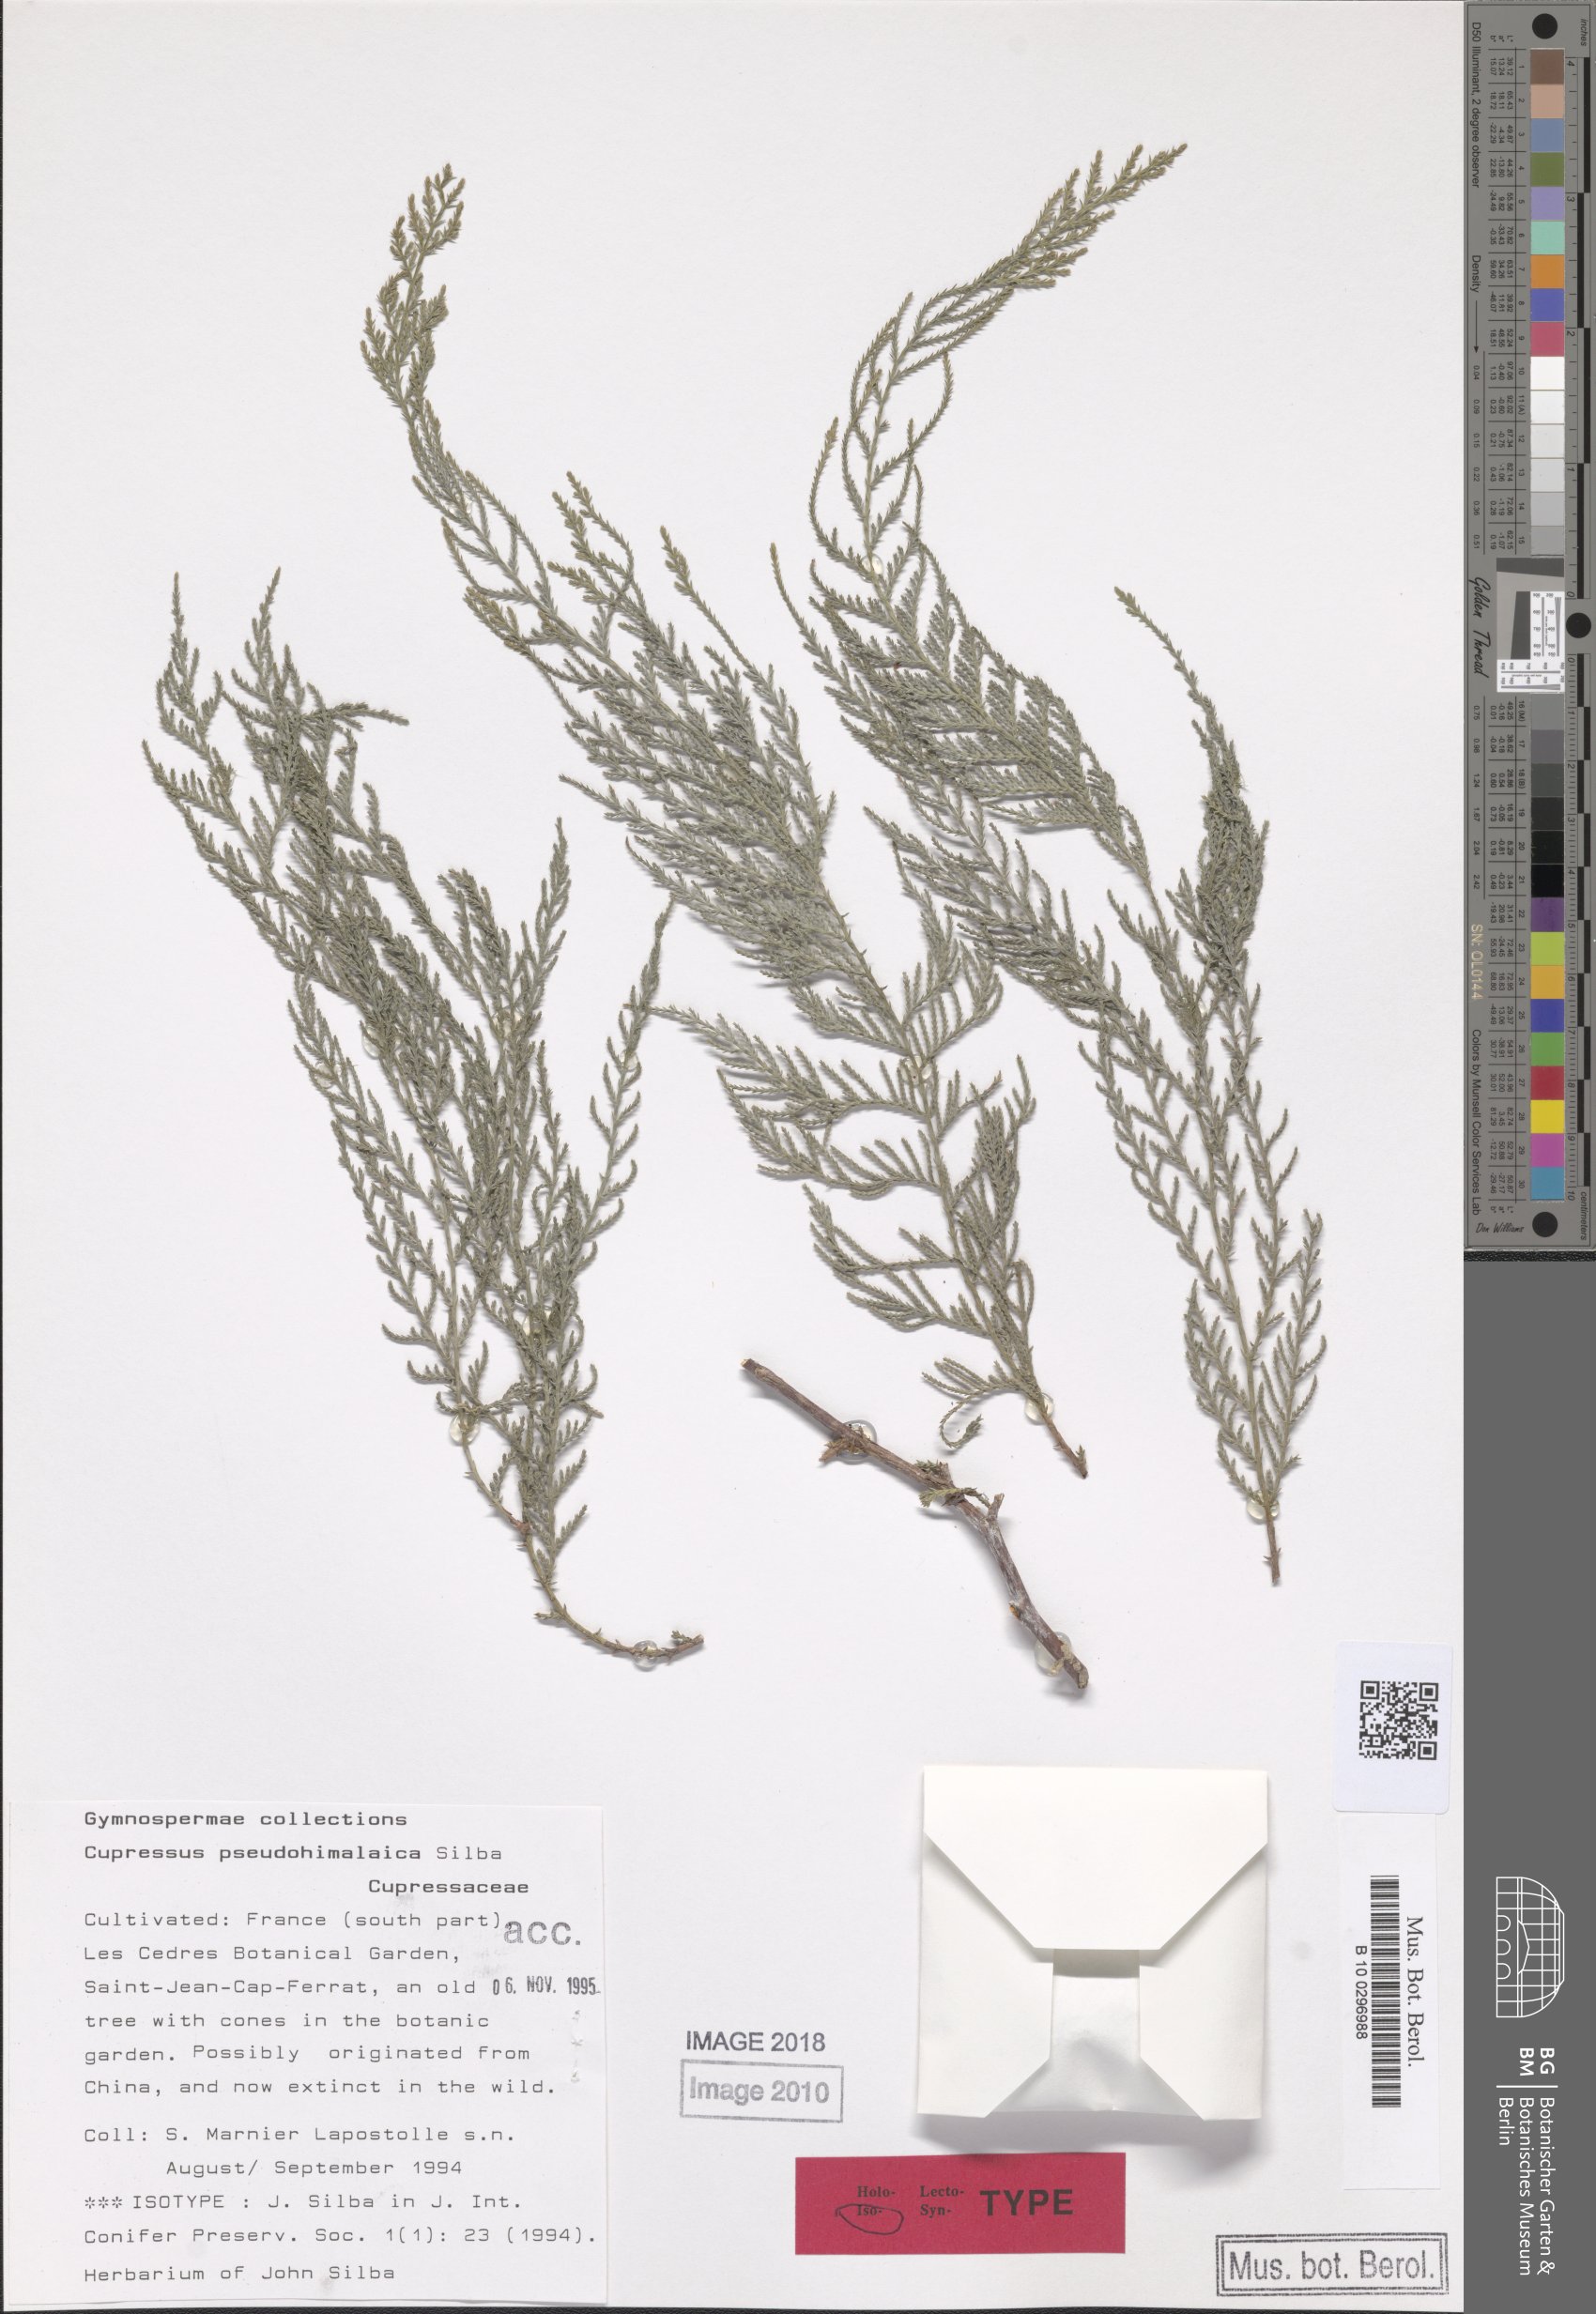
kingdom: Plantae
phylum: Tracheophyta
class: Pinopsida
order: Pinales
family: Cupressaceae
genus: Cupressus
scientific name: Cupressus cashmeriana
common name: Bhutan cypress
